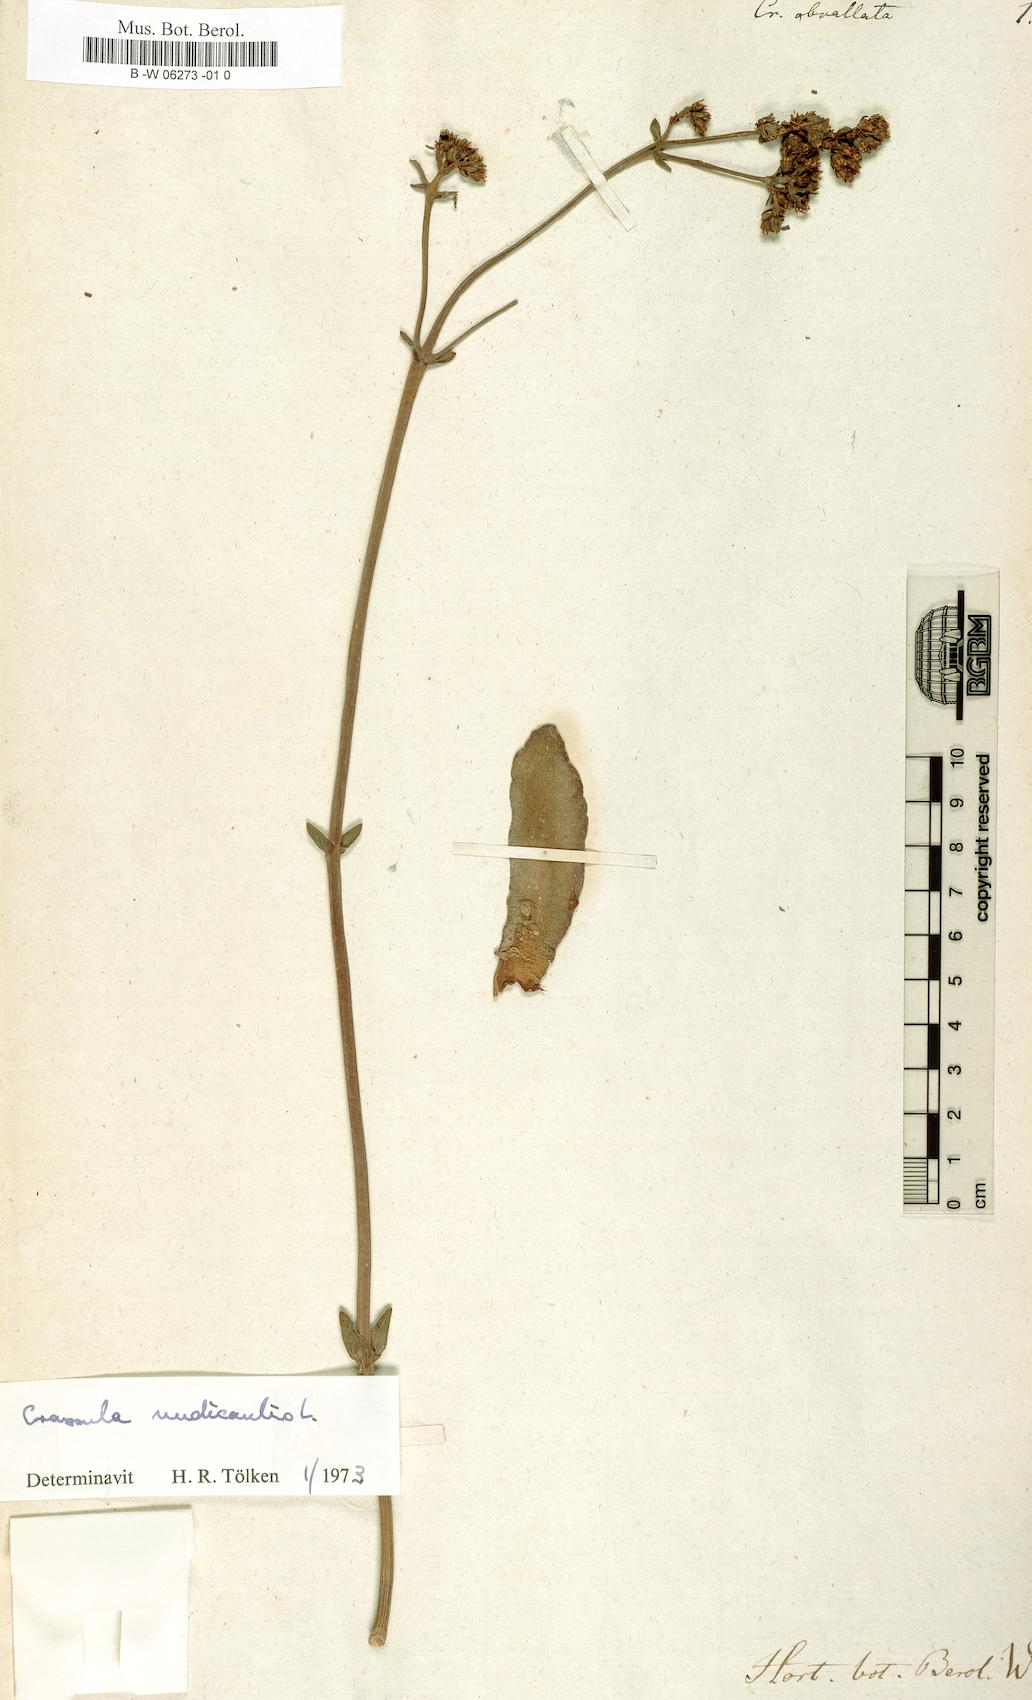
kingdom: Plantae
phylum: Tracheophyta
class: Magnoliopsida
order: Saxifragales
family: Crassulaceae
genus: Crassula
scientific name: Crassula
